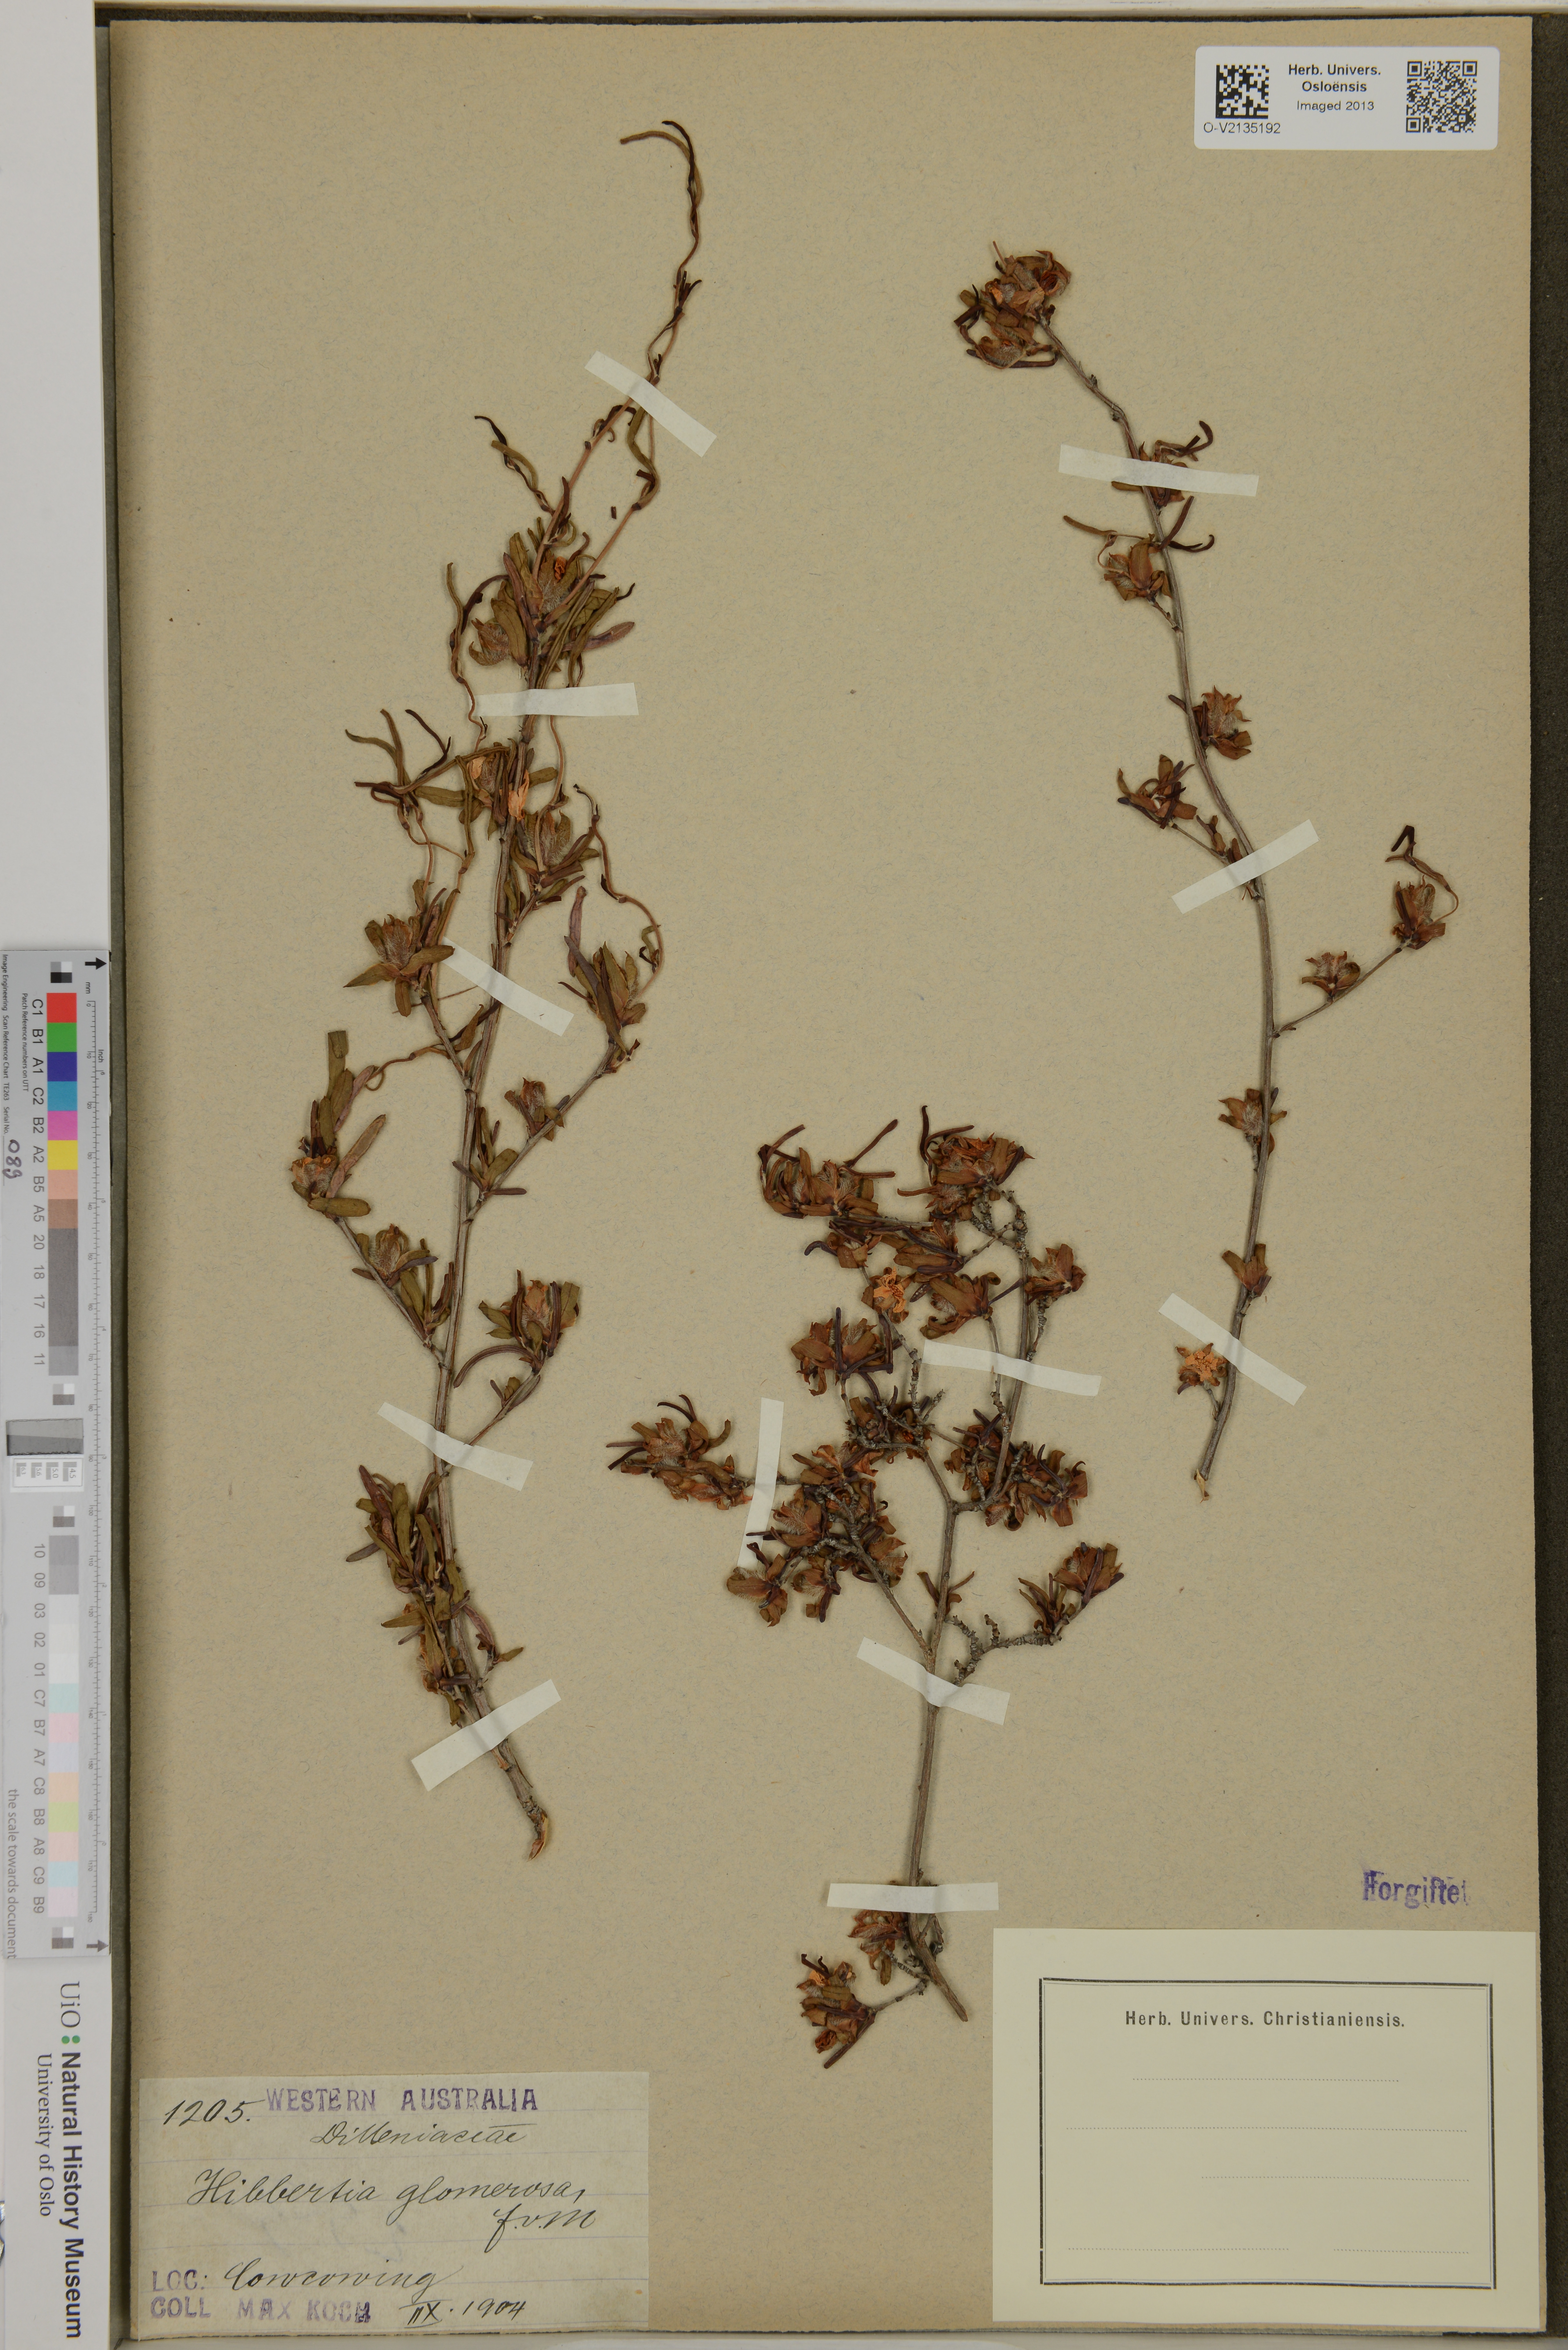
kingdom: Plantae
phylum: Tracheophyta
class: Magnoliopsida
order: Dilleniales
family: Dilleniaceae
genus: Hibbertia
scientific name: Hibbertia glomerosa
